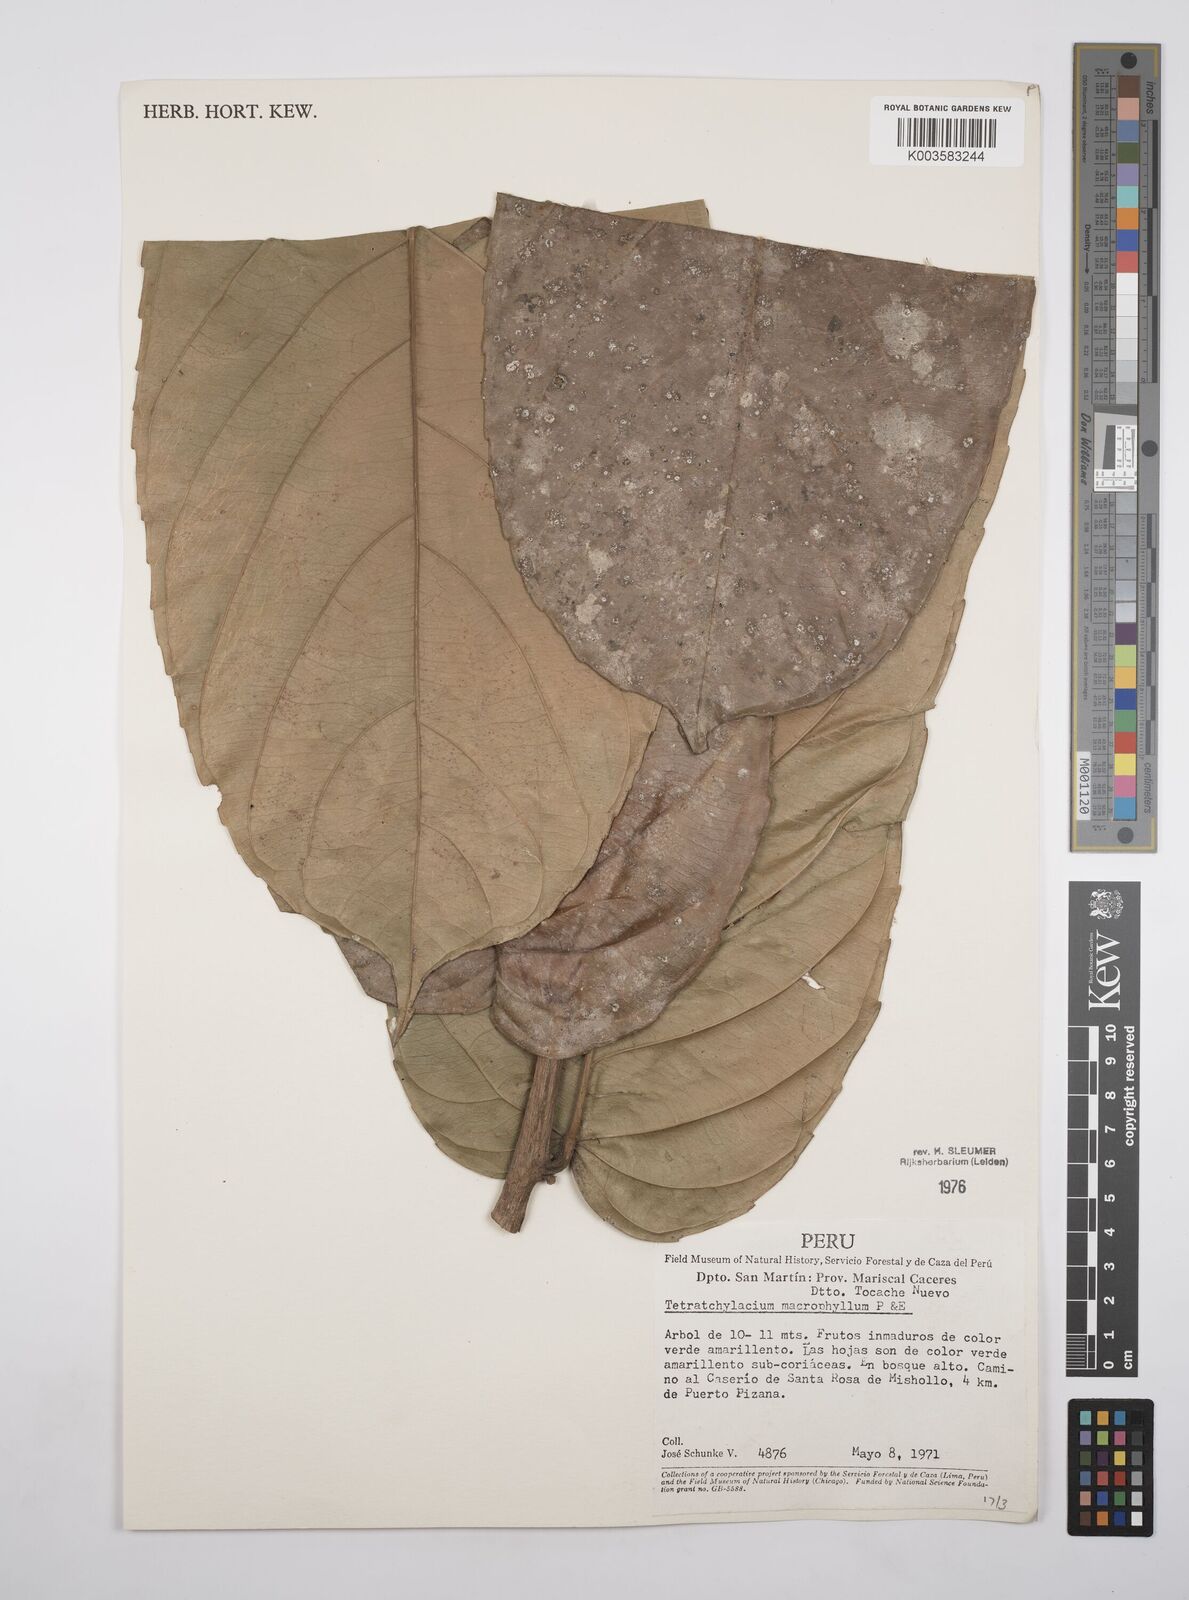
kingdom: Plantae
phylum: Tracheophyta
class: Magnoliopsida
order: Malpighiales
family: Salicaceae
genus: Tetrathylacium
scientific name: Tetrathylacium macrophyllum
